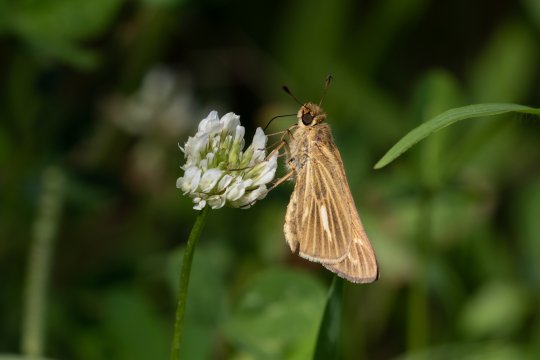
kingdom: Animalia
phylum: Arthropoda
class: Insecta
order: Lepidoptera
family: Hesperiidae
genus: Panoquina
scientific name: Panoquina panoquin
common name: Salt Marsh Skipper
